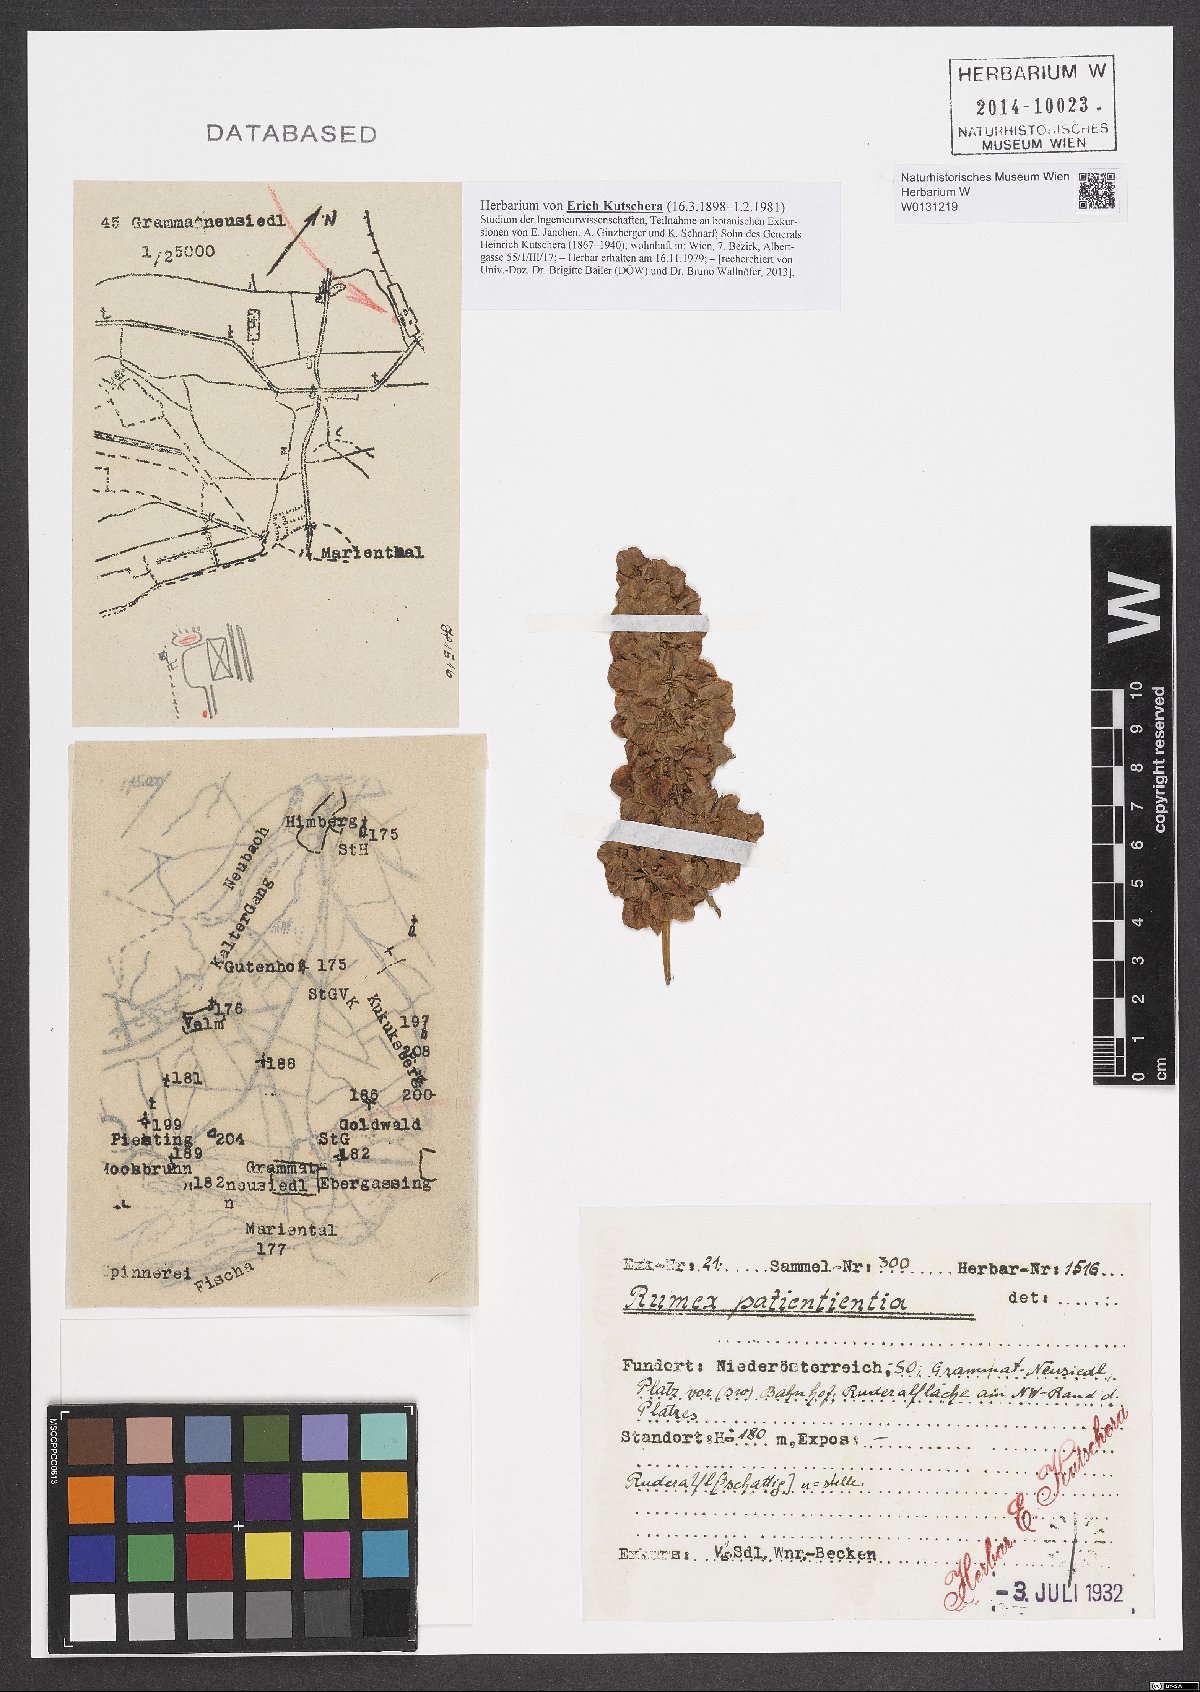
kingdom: Plantae
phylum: Tracheophyta
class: Magnoliopsida
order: Caryophyllales
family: Polygonaceae
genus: Rumex
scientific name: Rumex patientia
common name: Patience dock
